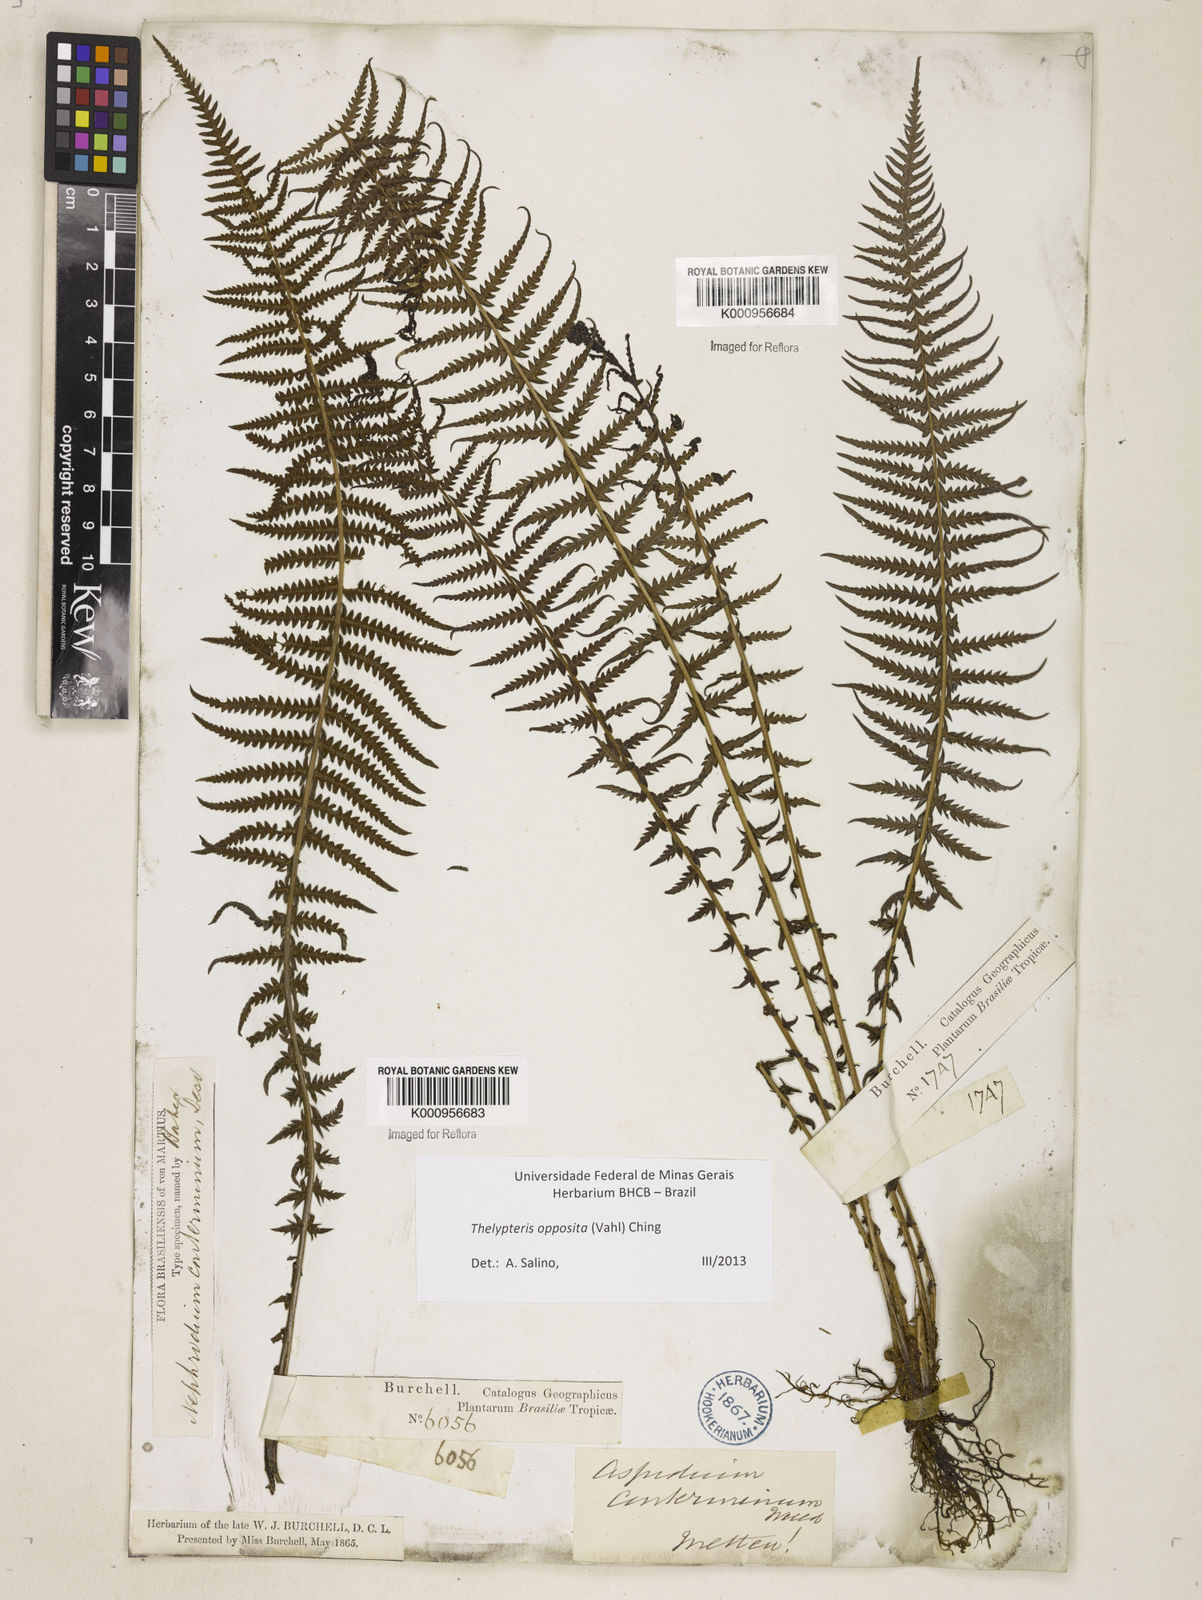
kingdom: Plantae
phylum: Tracheophyta
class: Polypodiopsida
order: Polypodiales
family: Thelypteridaceae
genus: Amauropelta
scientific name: Amauropelta opposita
